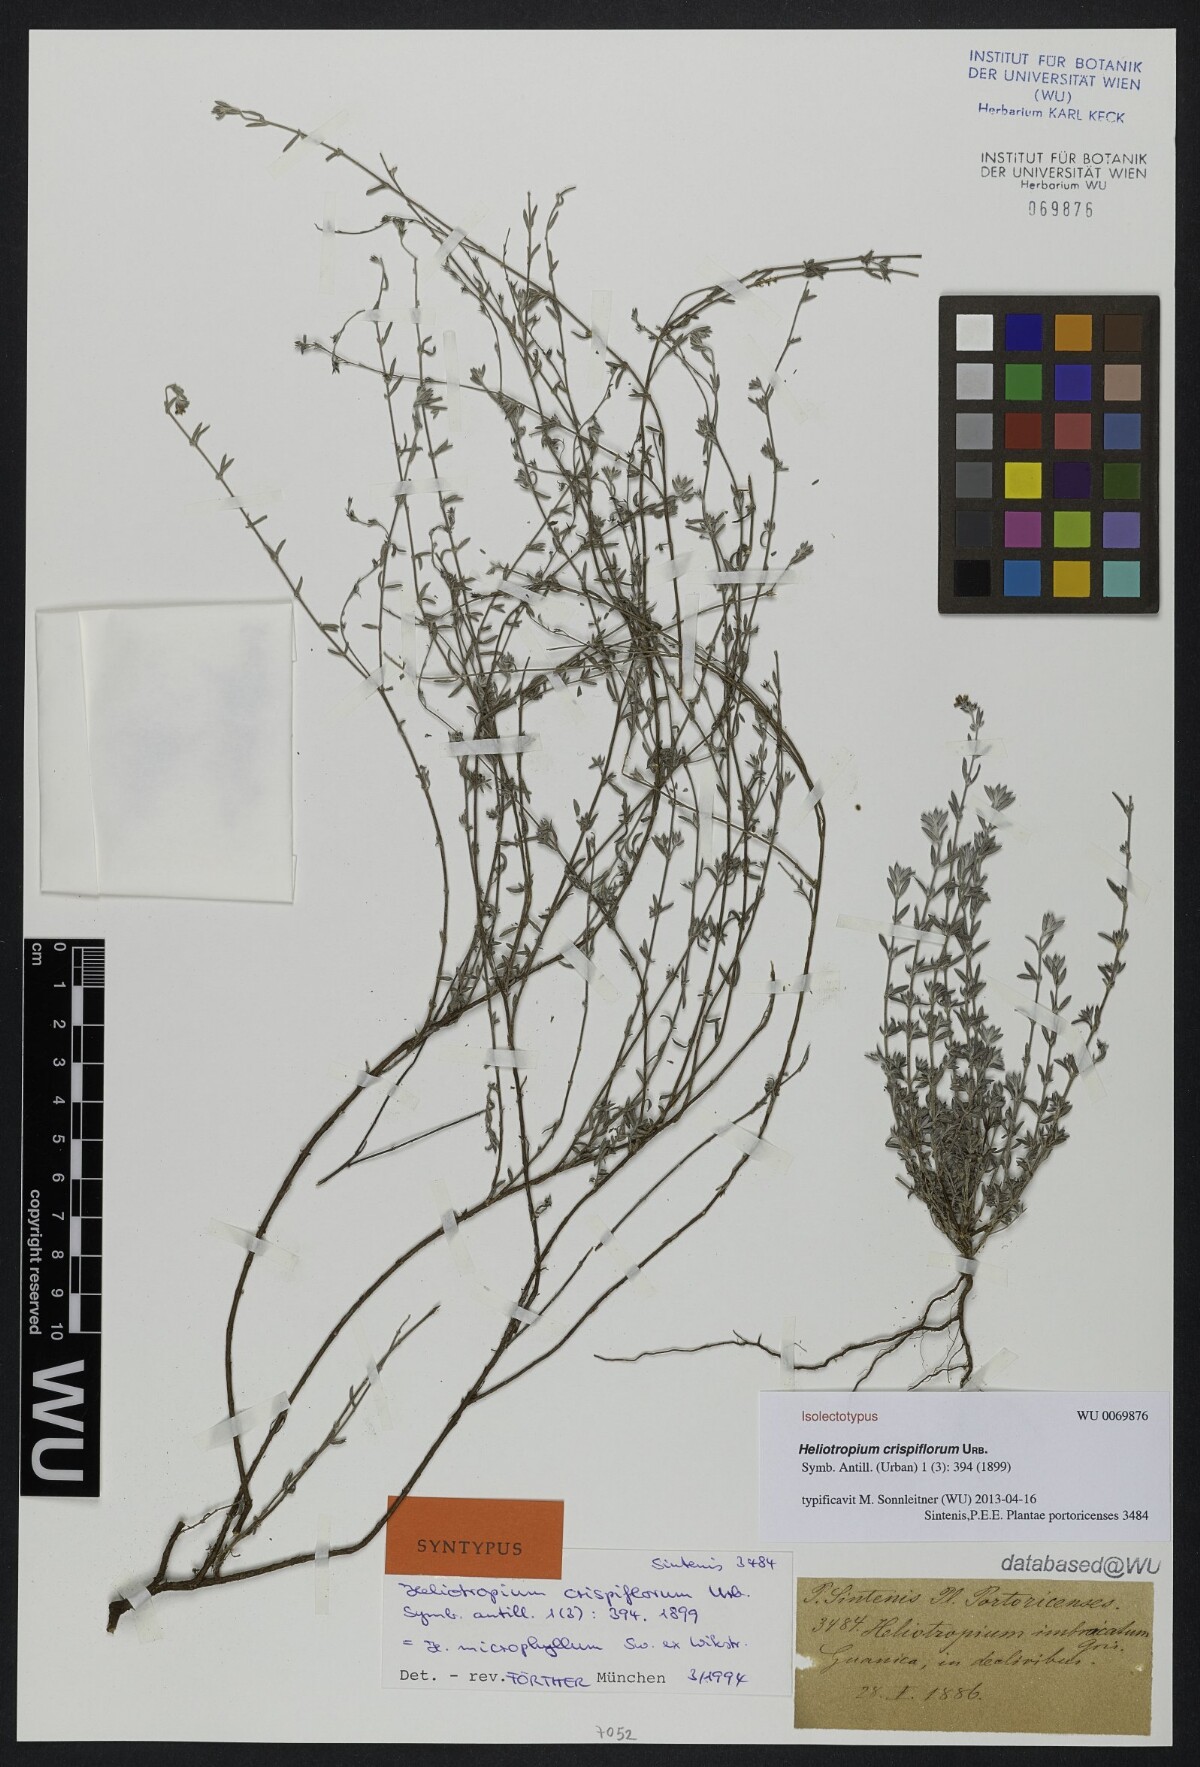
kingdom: Plantae
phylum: Tracheophyta
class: Magnoliopsida
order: Boraginales
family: Heliotropiaceae
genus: Euploca
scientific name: Euploca microphylla
